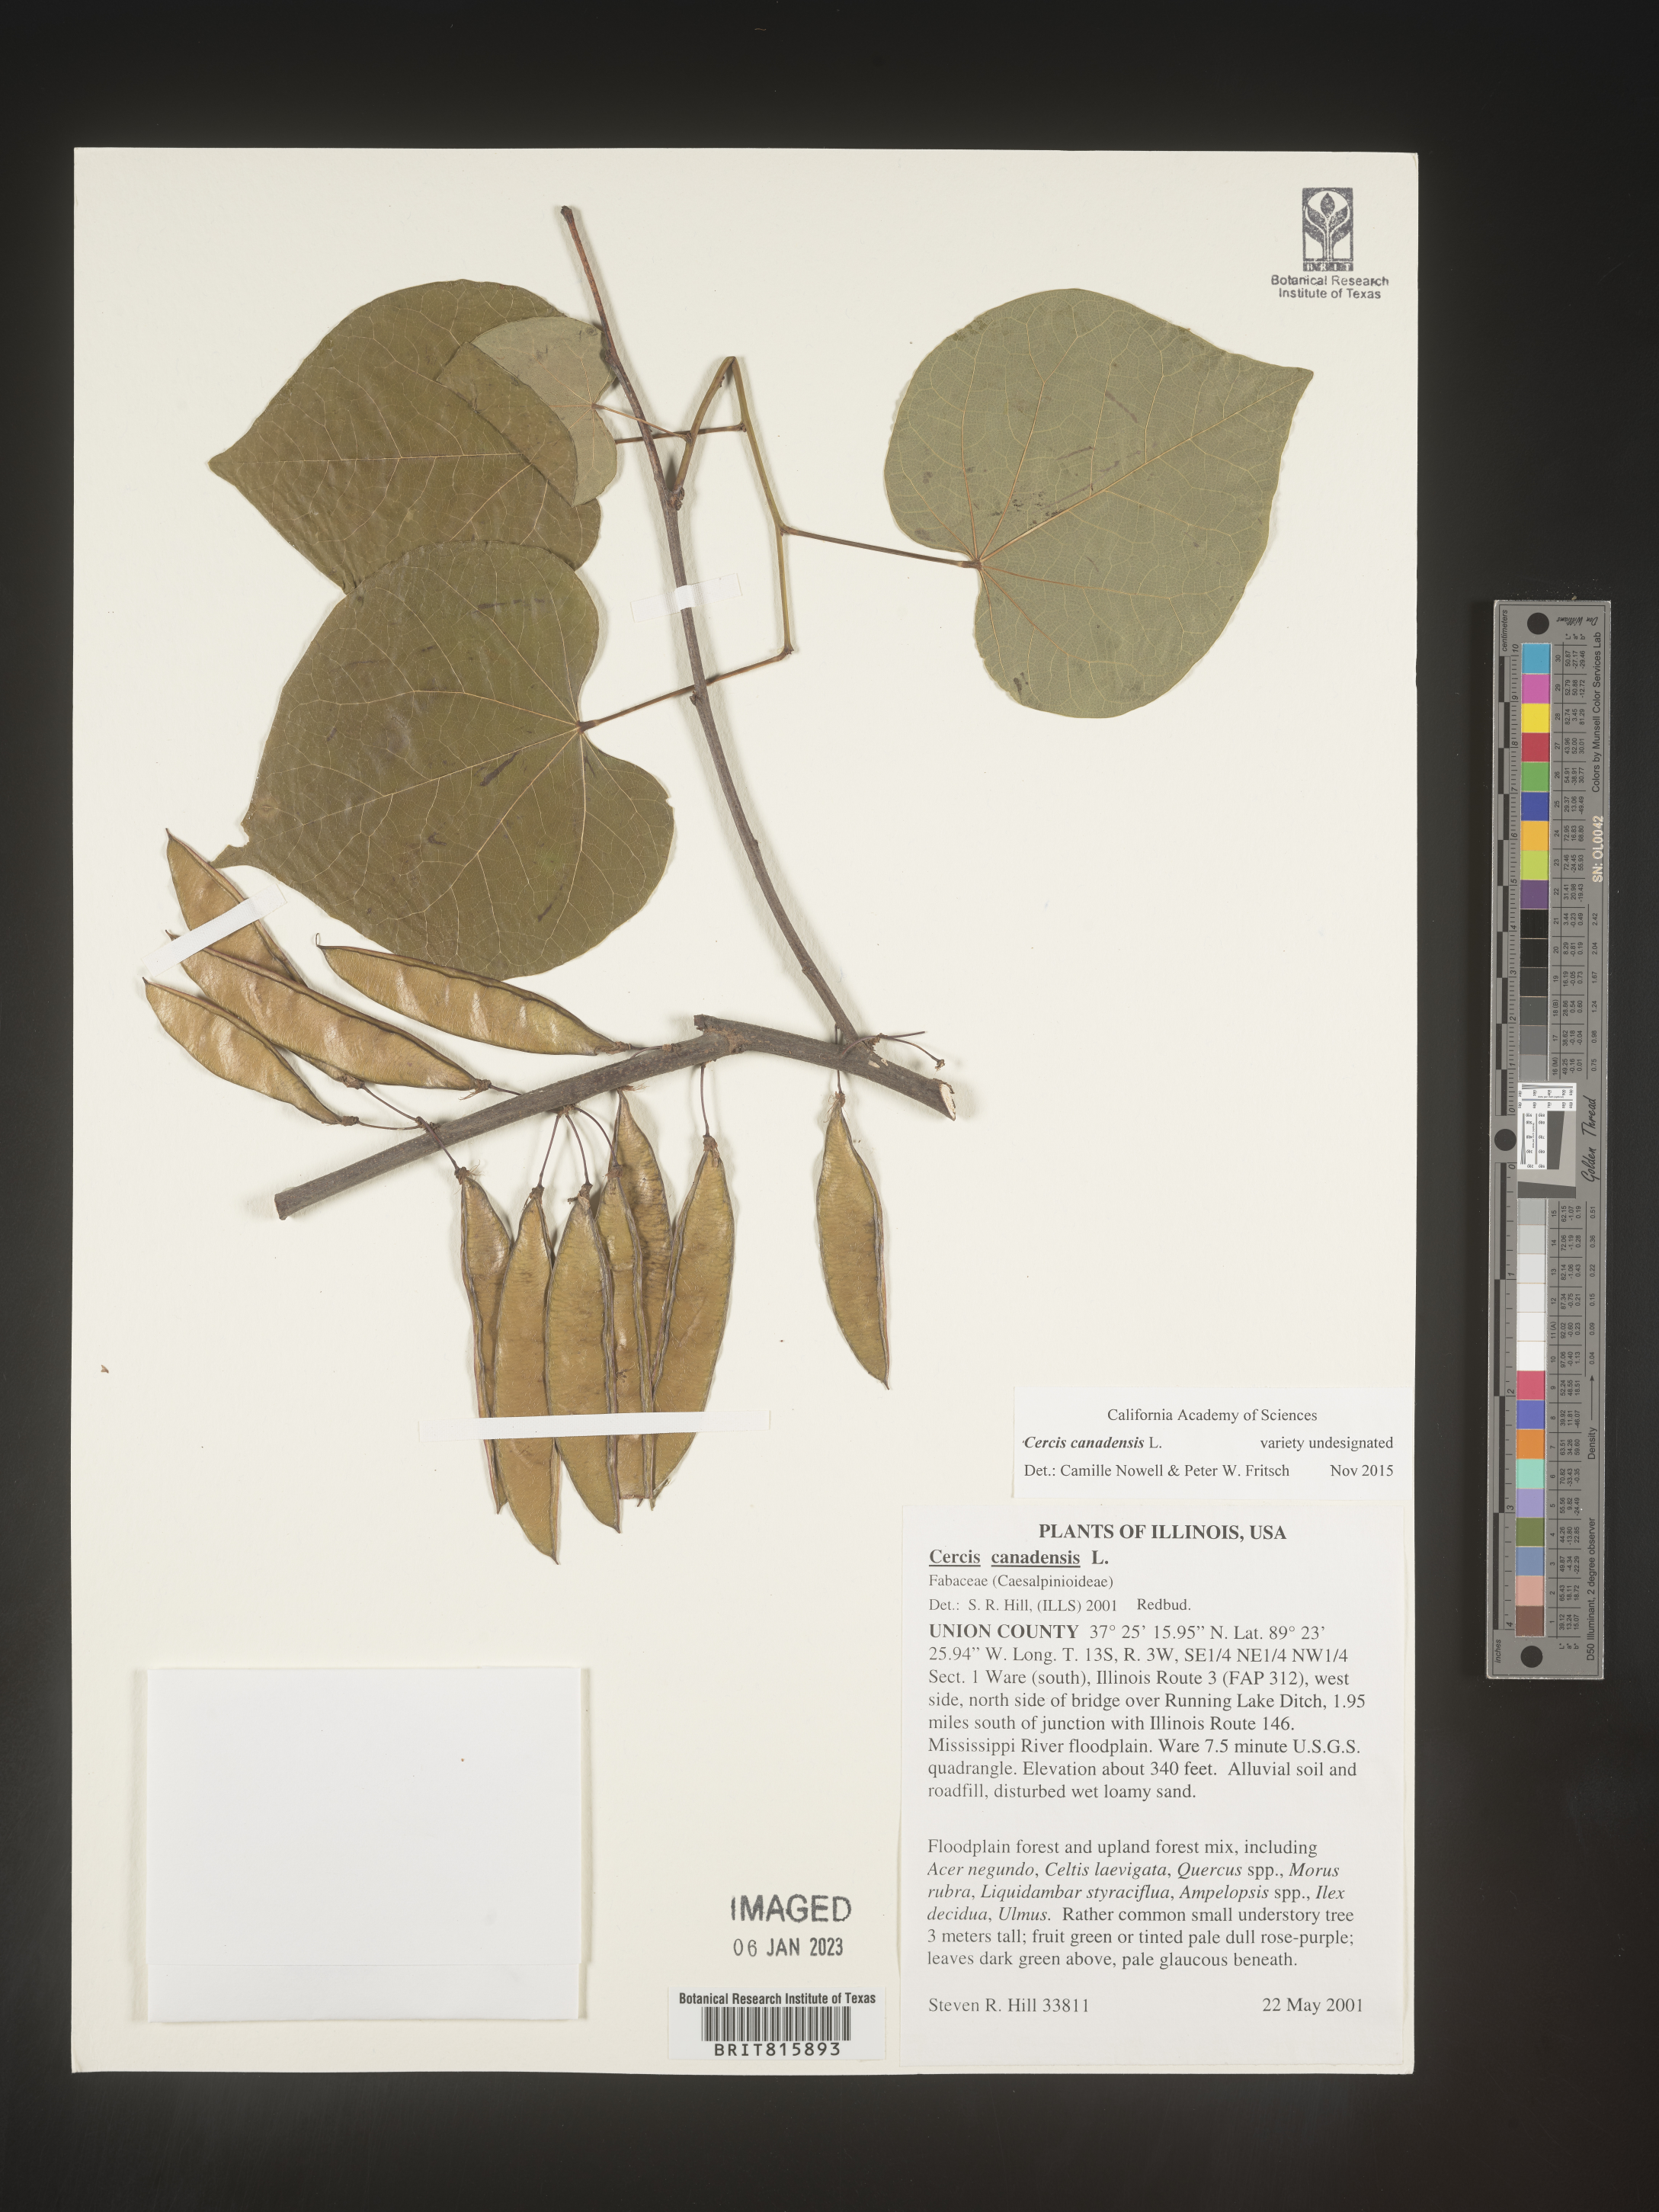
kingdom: Plantae
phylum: Tracheophyta
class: Magnoliopsida
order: Fabales
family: Fabaceae
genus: Cercis
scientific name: Cercis canadensis
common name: Eastern redbud
